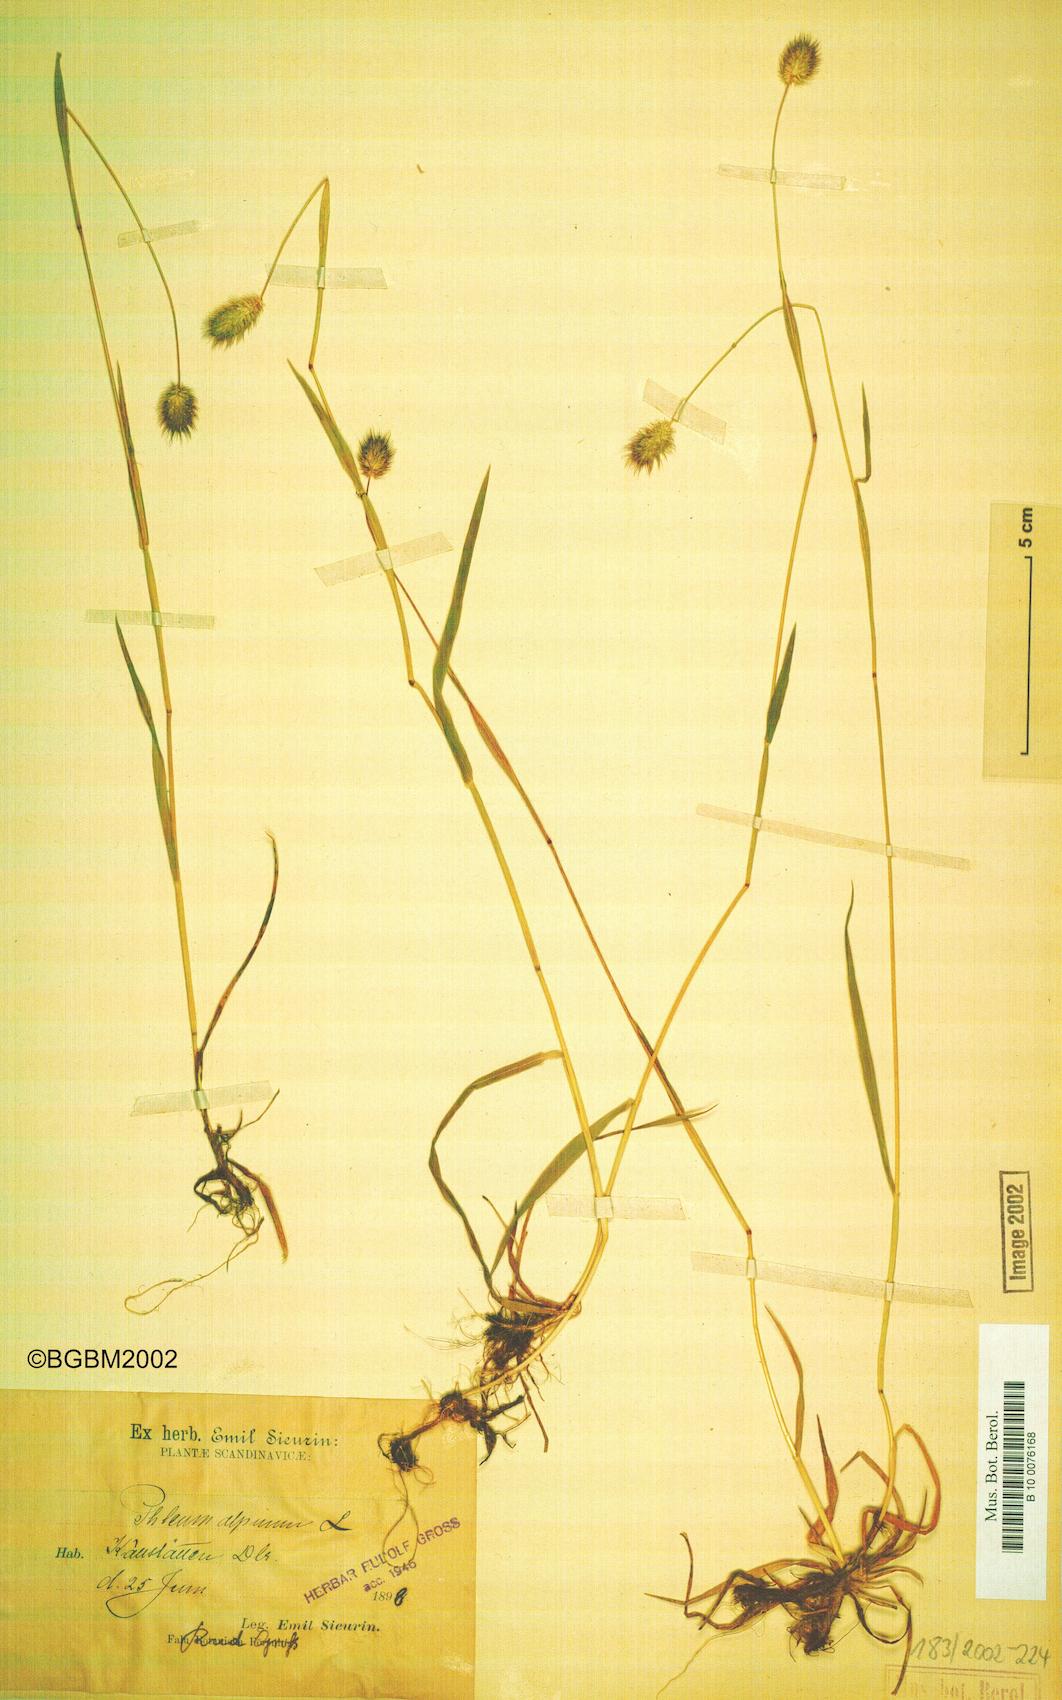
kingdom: Plantae
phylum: Tracheophyta
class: Liliopsida
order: Poales
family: Poaceae
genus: Phleum
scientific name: Phleum alpinum
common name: Alpine cat's-tail
